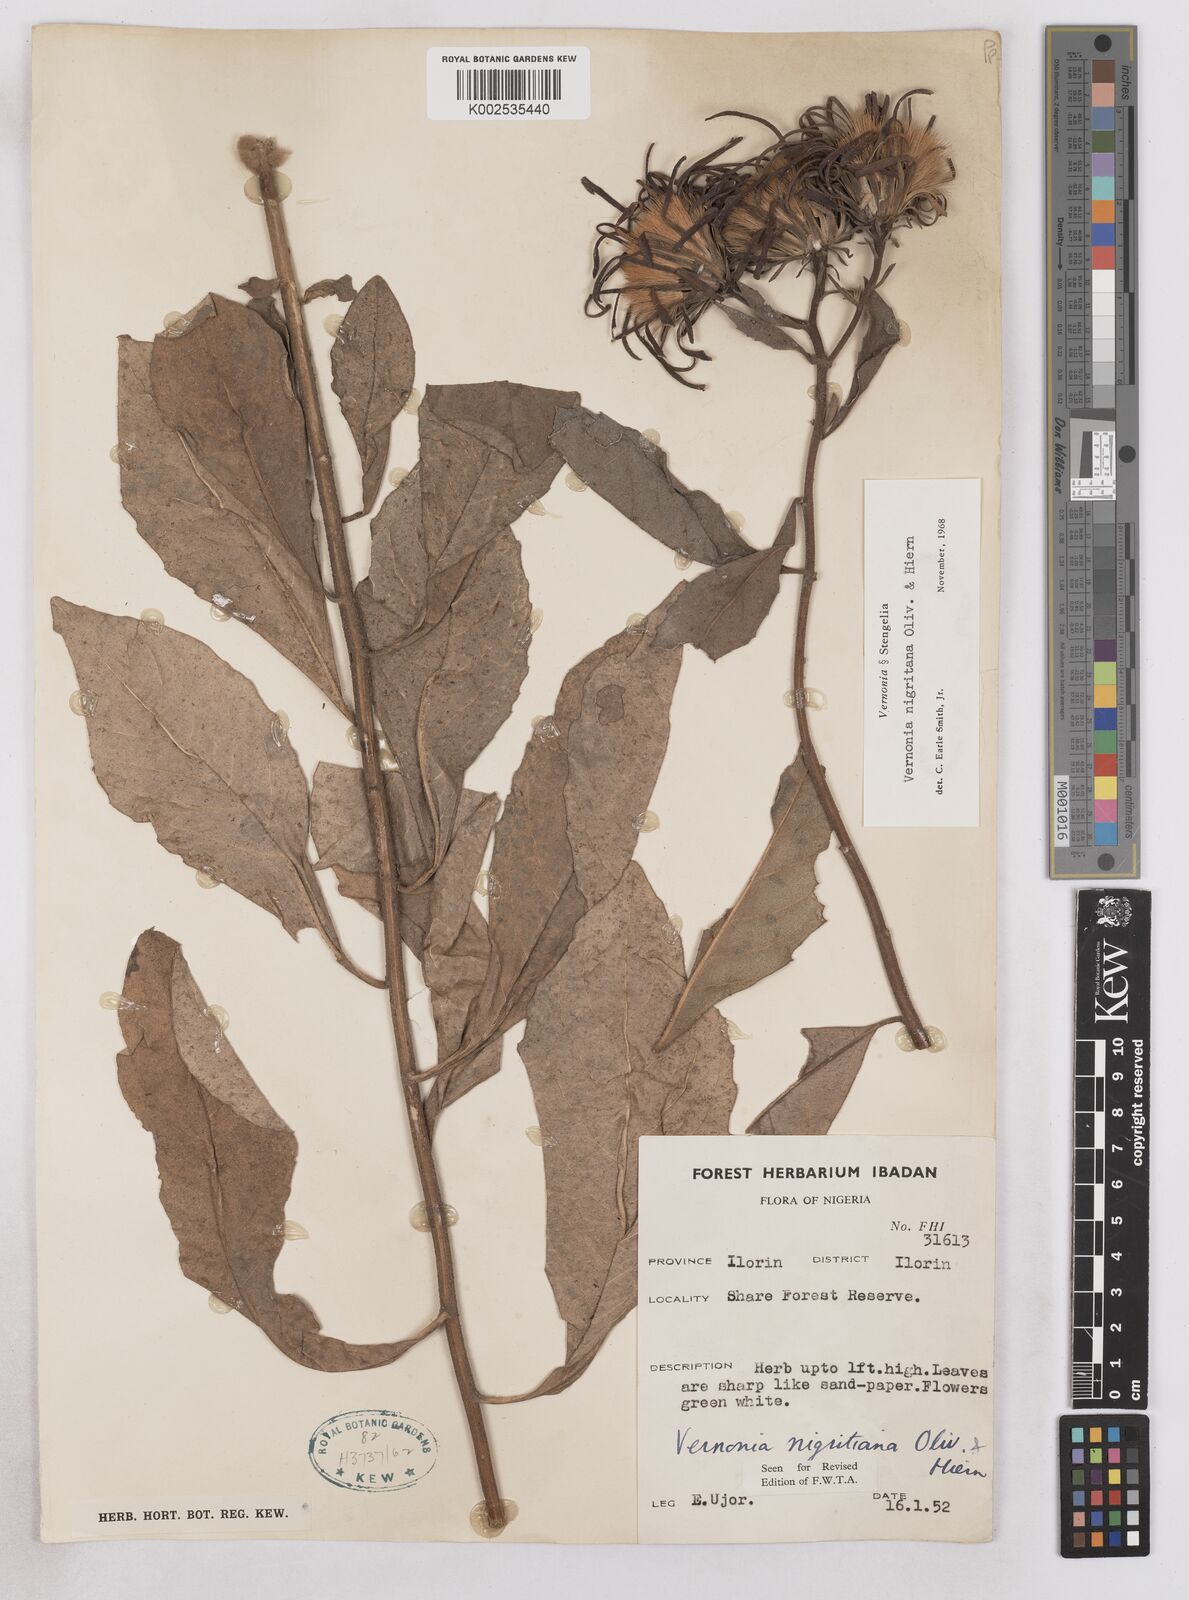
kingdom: Plantae
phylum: Tracheophyta
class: Magnoliopsida
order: Asterales
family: Asteraceae
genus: Linzia
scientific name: Linzia nigritiana
